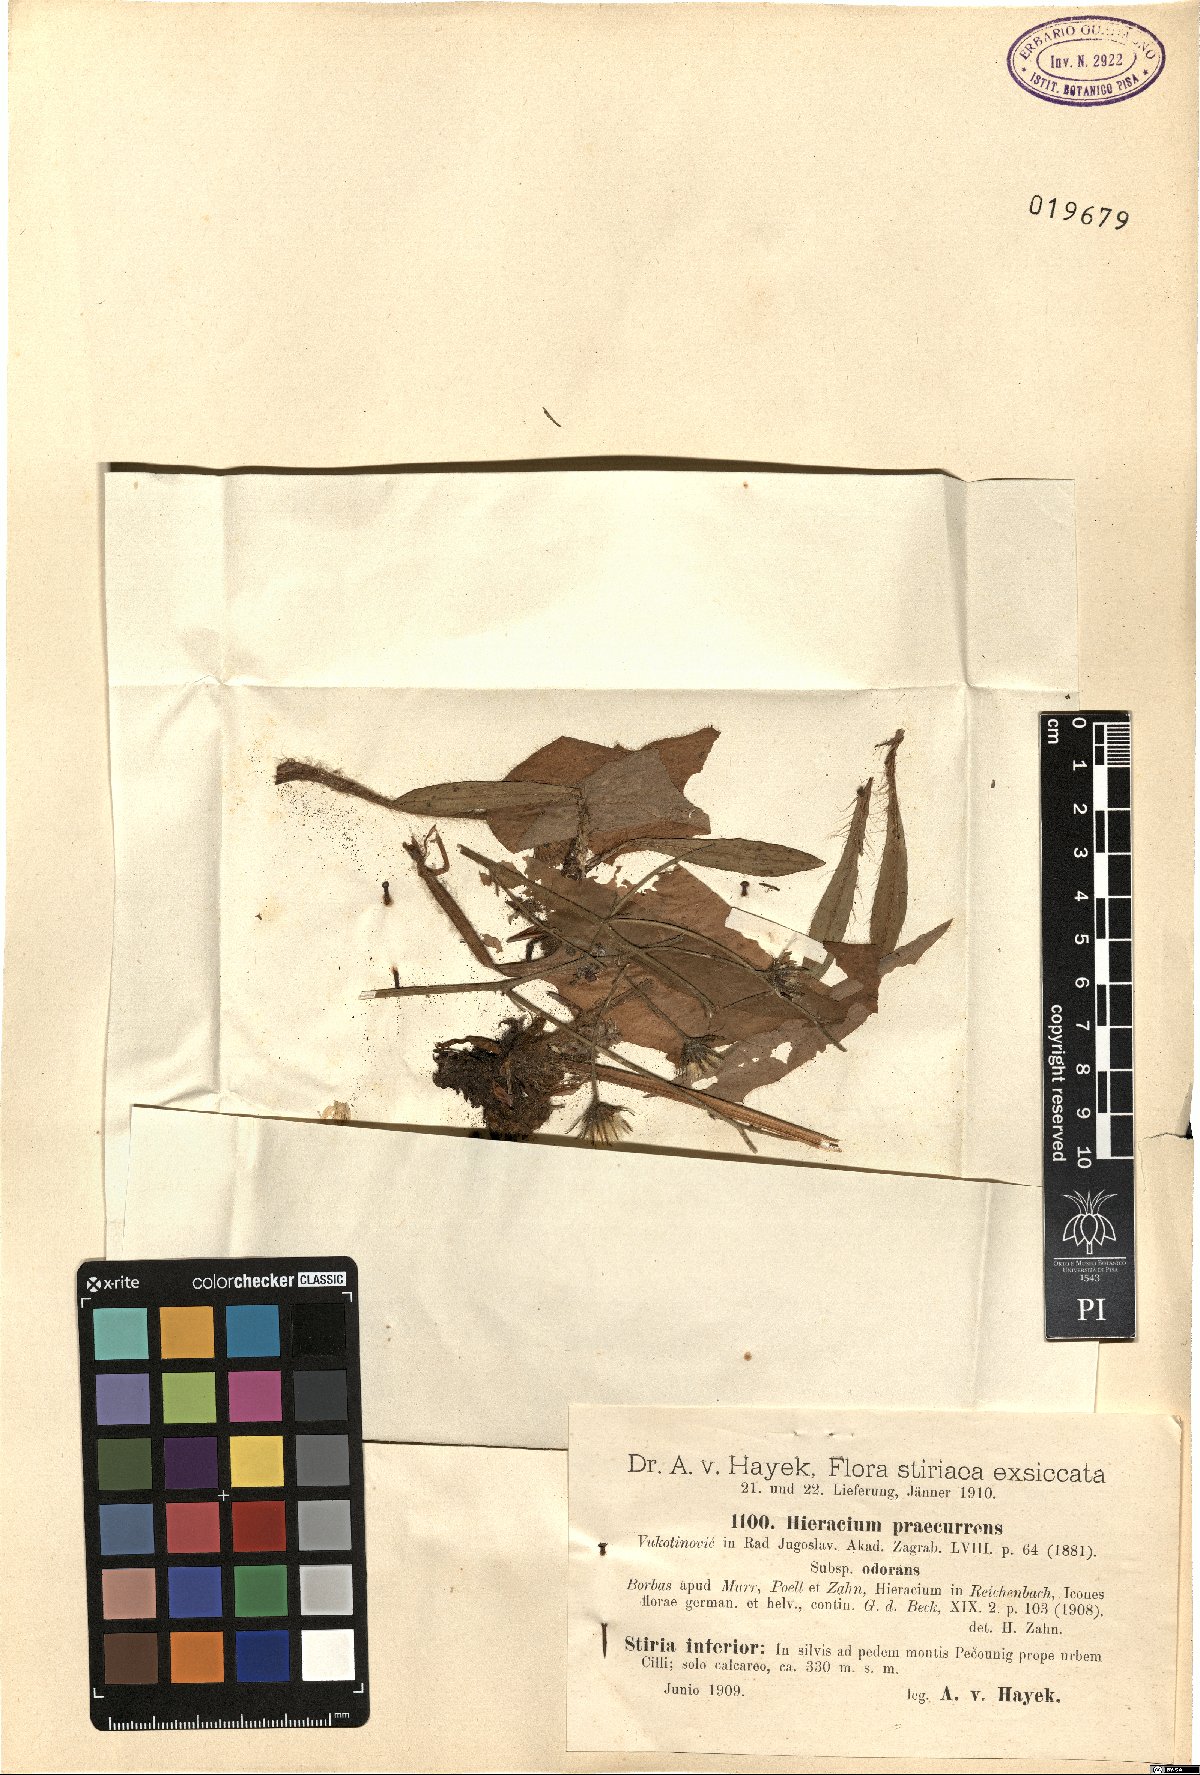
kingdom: Plantae
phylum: Tracheophyta
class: Magnoliopsida
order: Asterales
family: Asteraceae
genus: Hieracium
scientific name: Hieracium rotundatum
